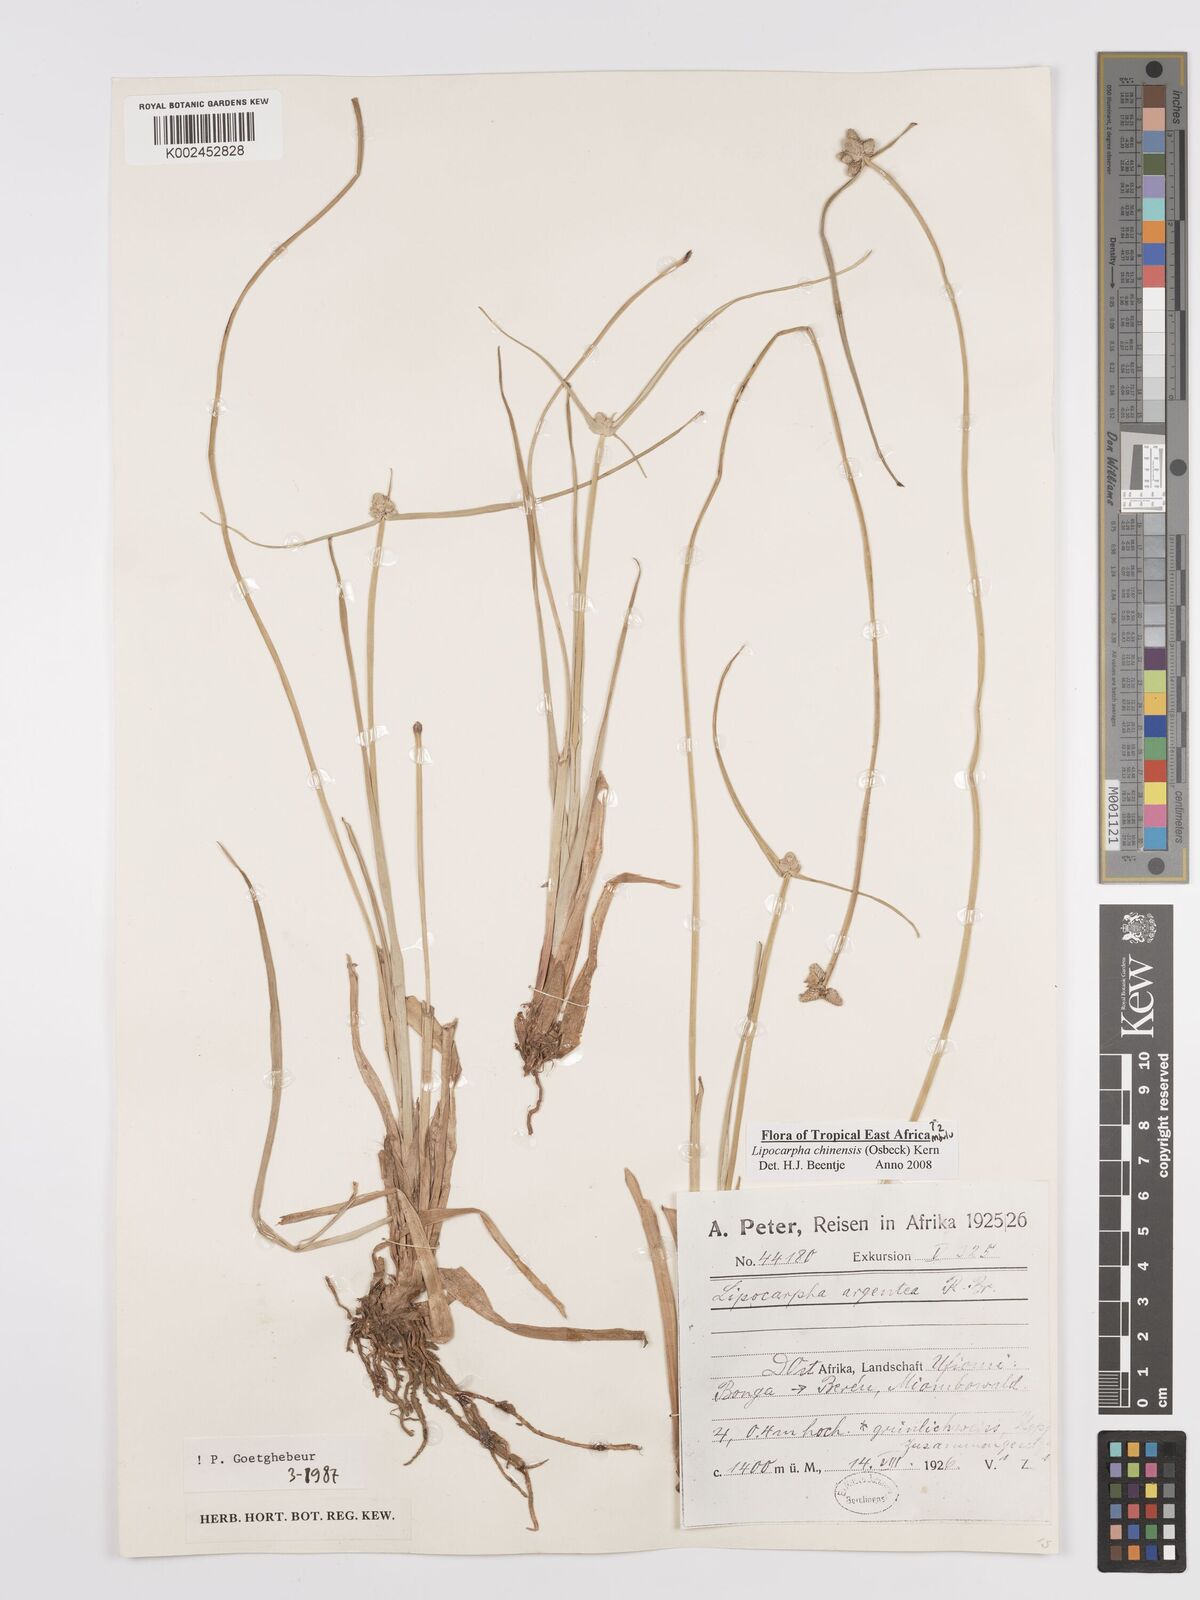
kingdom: Plantae
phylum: Tracheophyta
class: Liliopsida
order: Poales
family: Cyperaceae
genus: Cyperus
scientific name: Cyperus
